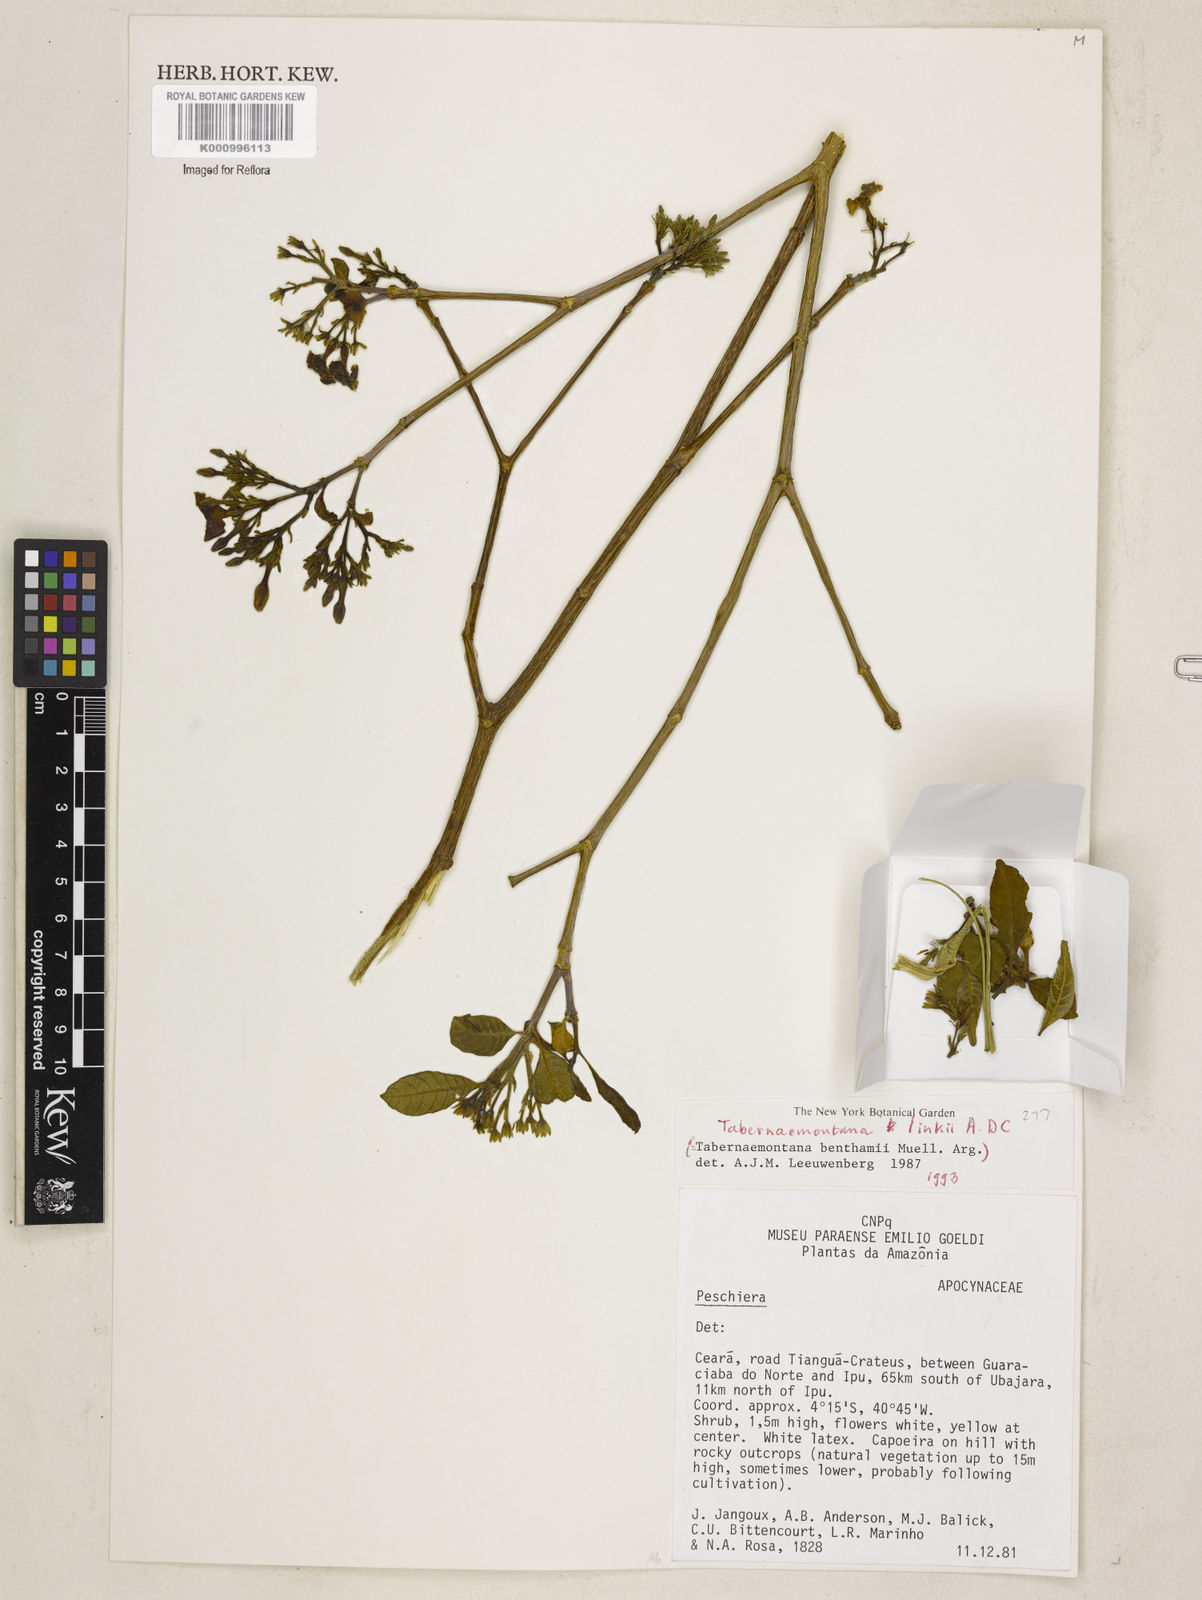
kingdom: Plantae
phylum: Tracheophyta
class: Magnoliopsida
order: Gentianales
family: Apocynaceae
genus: Tabernaemontana
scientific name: Tabernaemontana linkii
